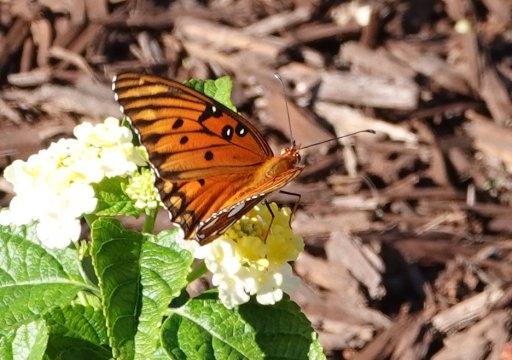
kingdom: Animalia
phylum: Arthropoda
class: Insecta
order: Lepidoptera
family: Nymphalidae
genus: Dione
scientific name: Dione vanillae
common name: Gulf Fritillary
